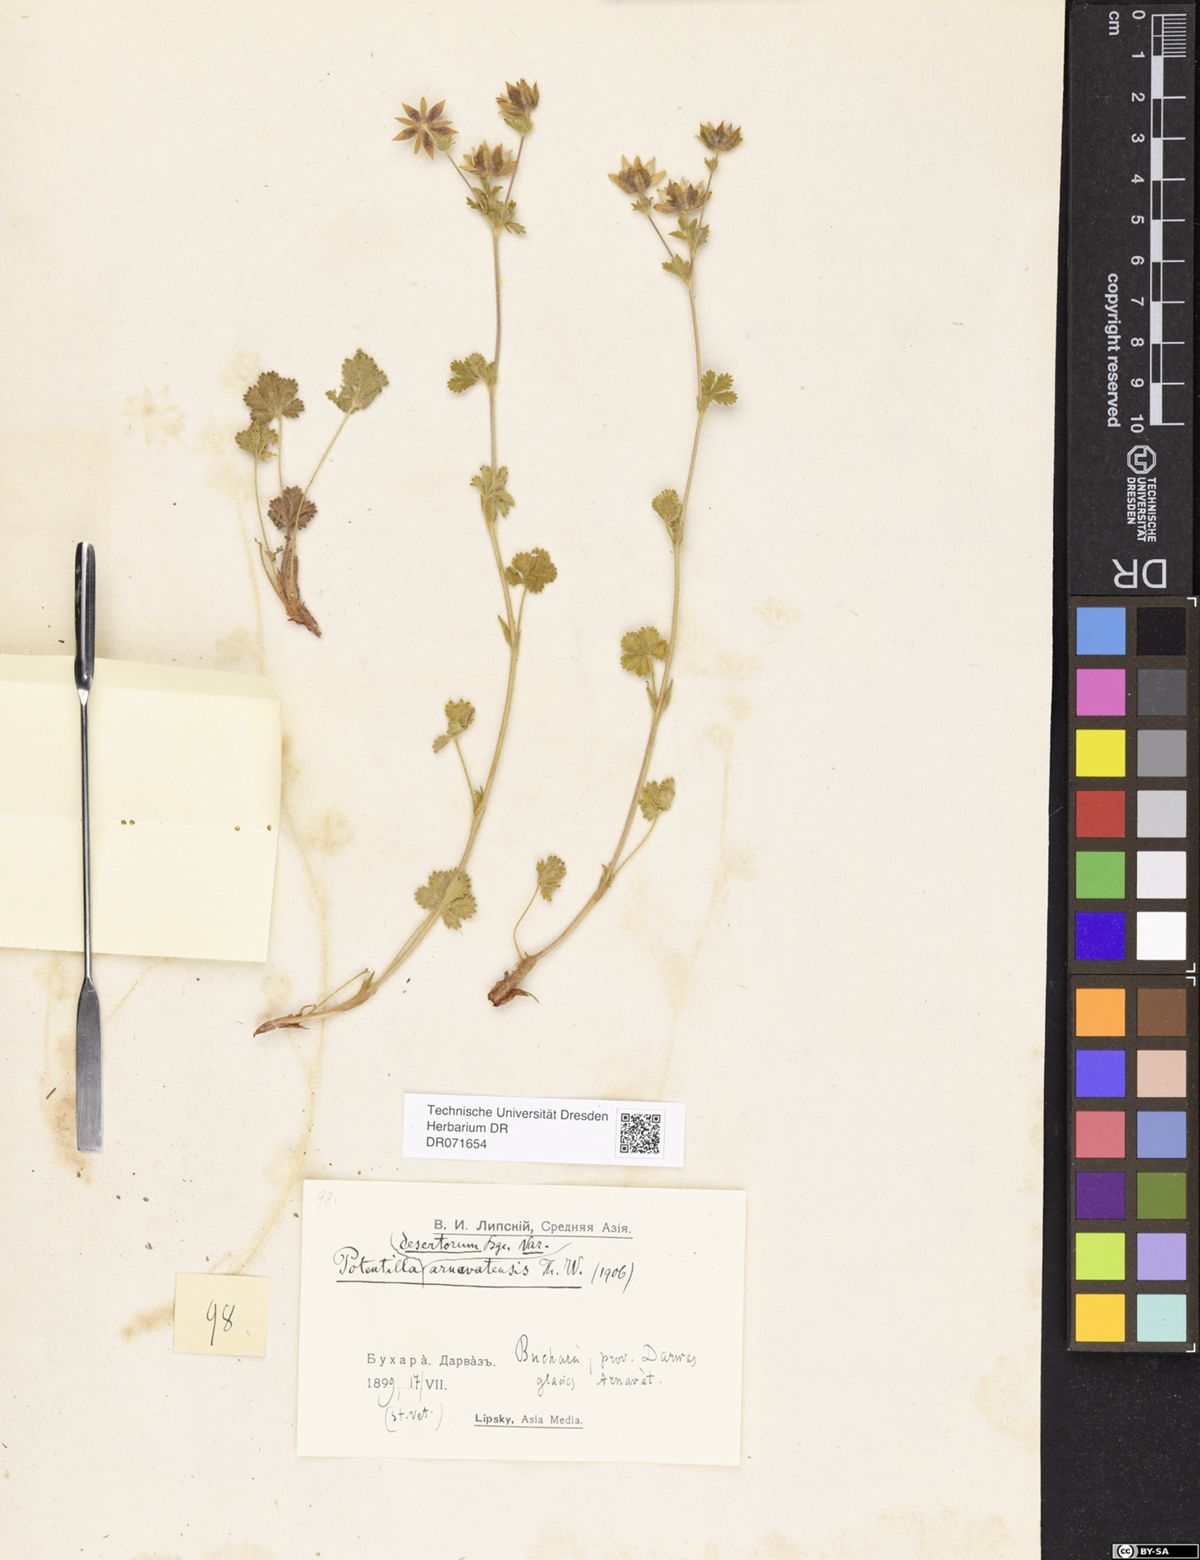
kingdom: Plantae
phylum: Tracheophyta
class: Magnoliopsida
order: Rosales
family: Rosaceae
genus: Potentilla
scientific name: Potentilla desertorum
